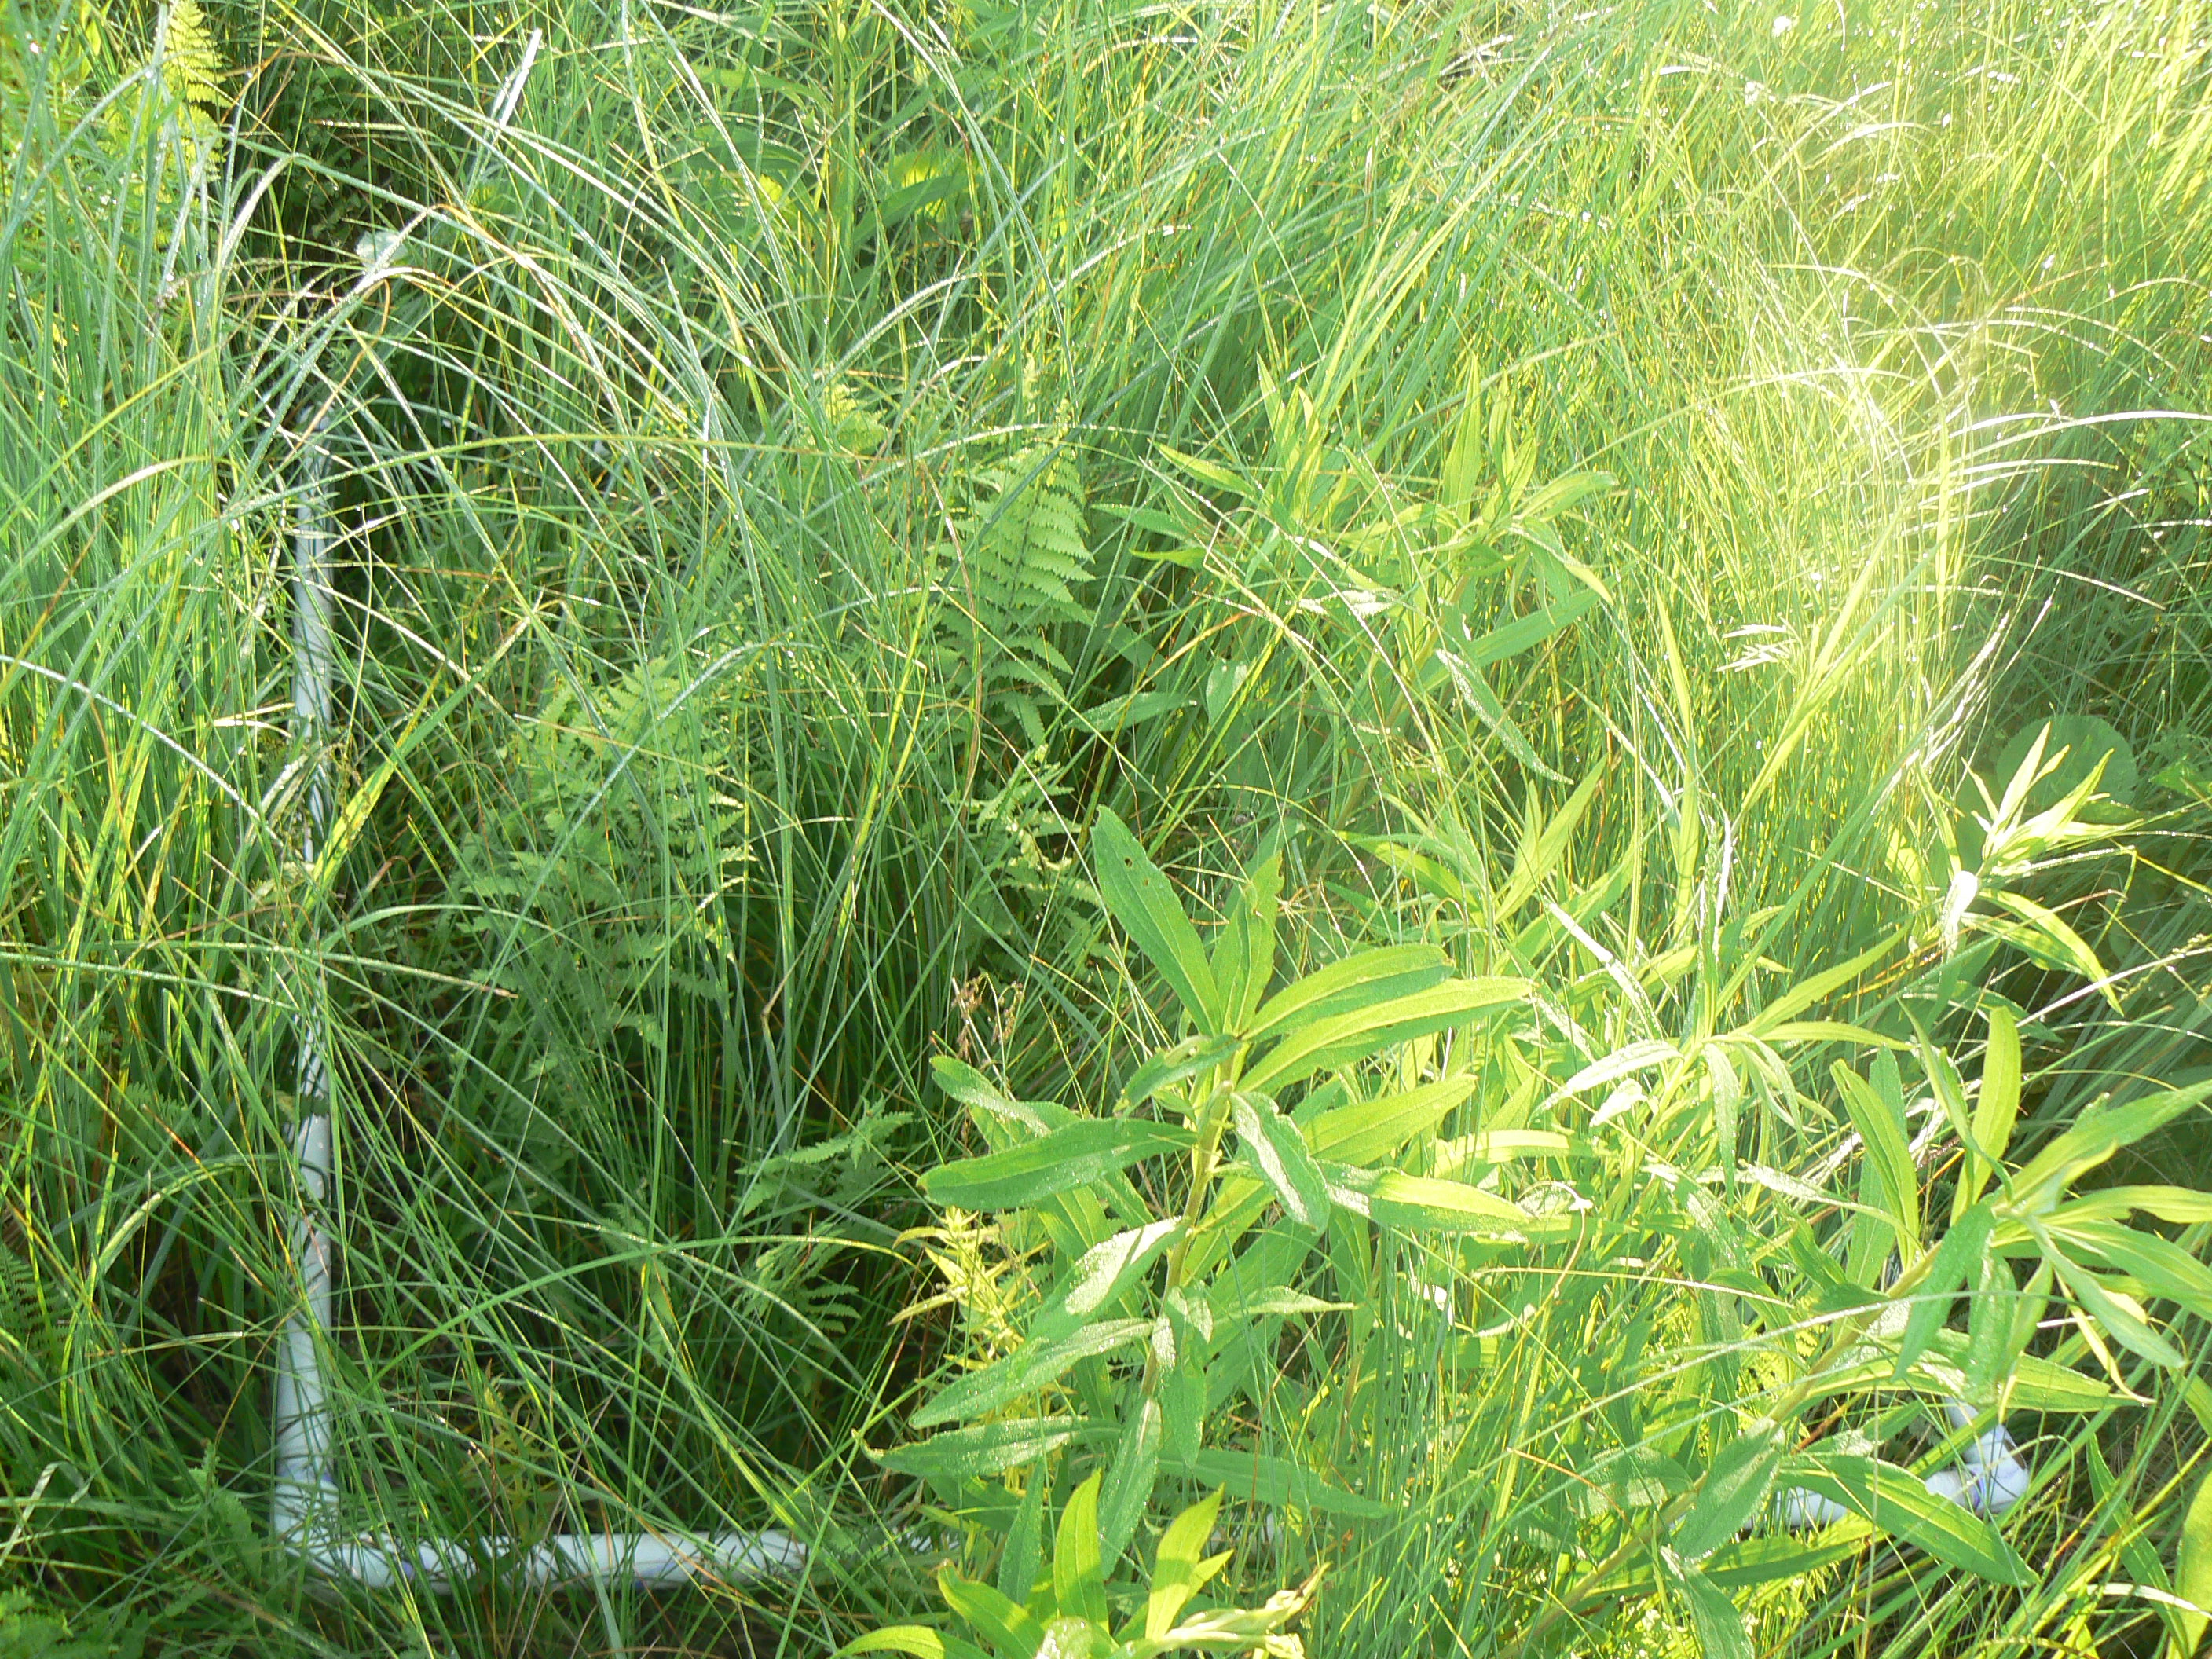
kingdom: Plantae
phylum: Tracheophyta
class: Liliopsida
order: Poales
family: Poaceae
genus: Calamagrostis
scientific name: Calamagrostis canadensis
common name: Canada bluejoint
